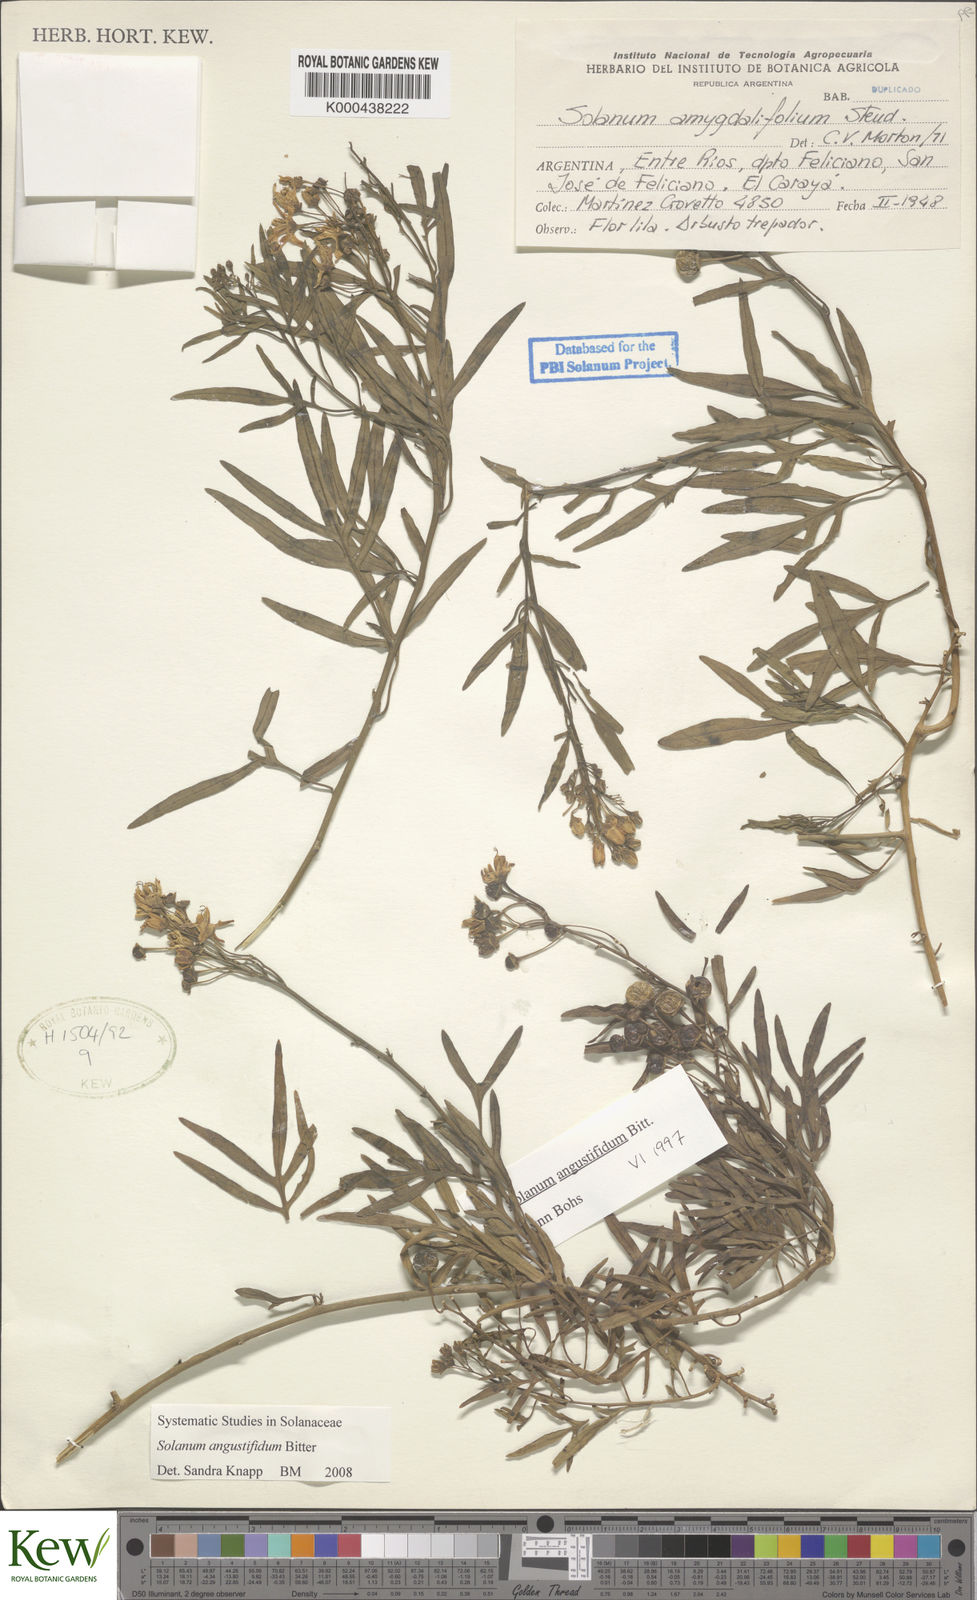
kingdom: Plantae
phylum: Tracheophyta
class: Magnoliopsida
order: Solanales
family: Solanaceae
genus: Solanum
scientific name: Solanum angustifidum
